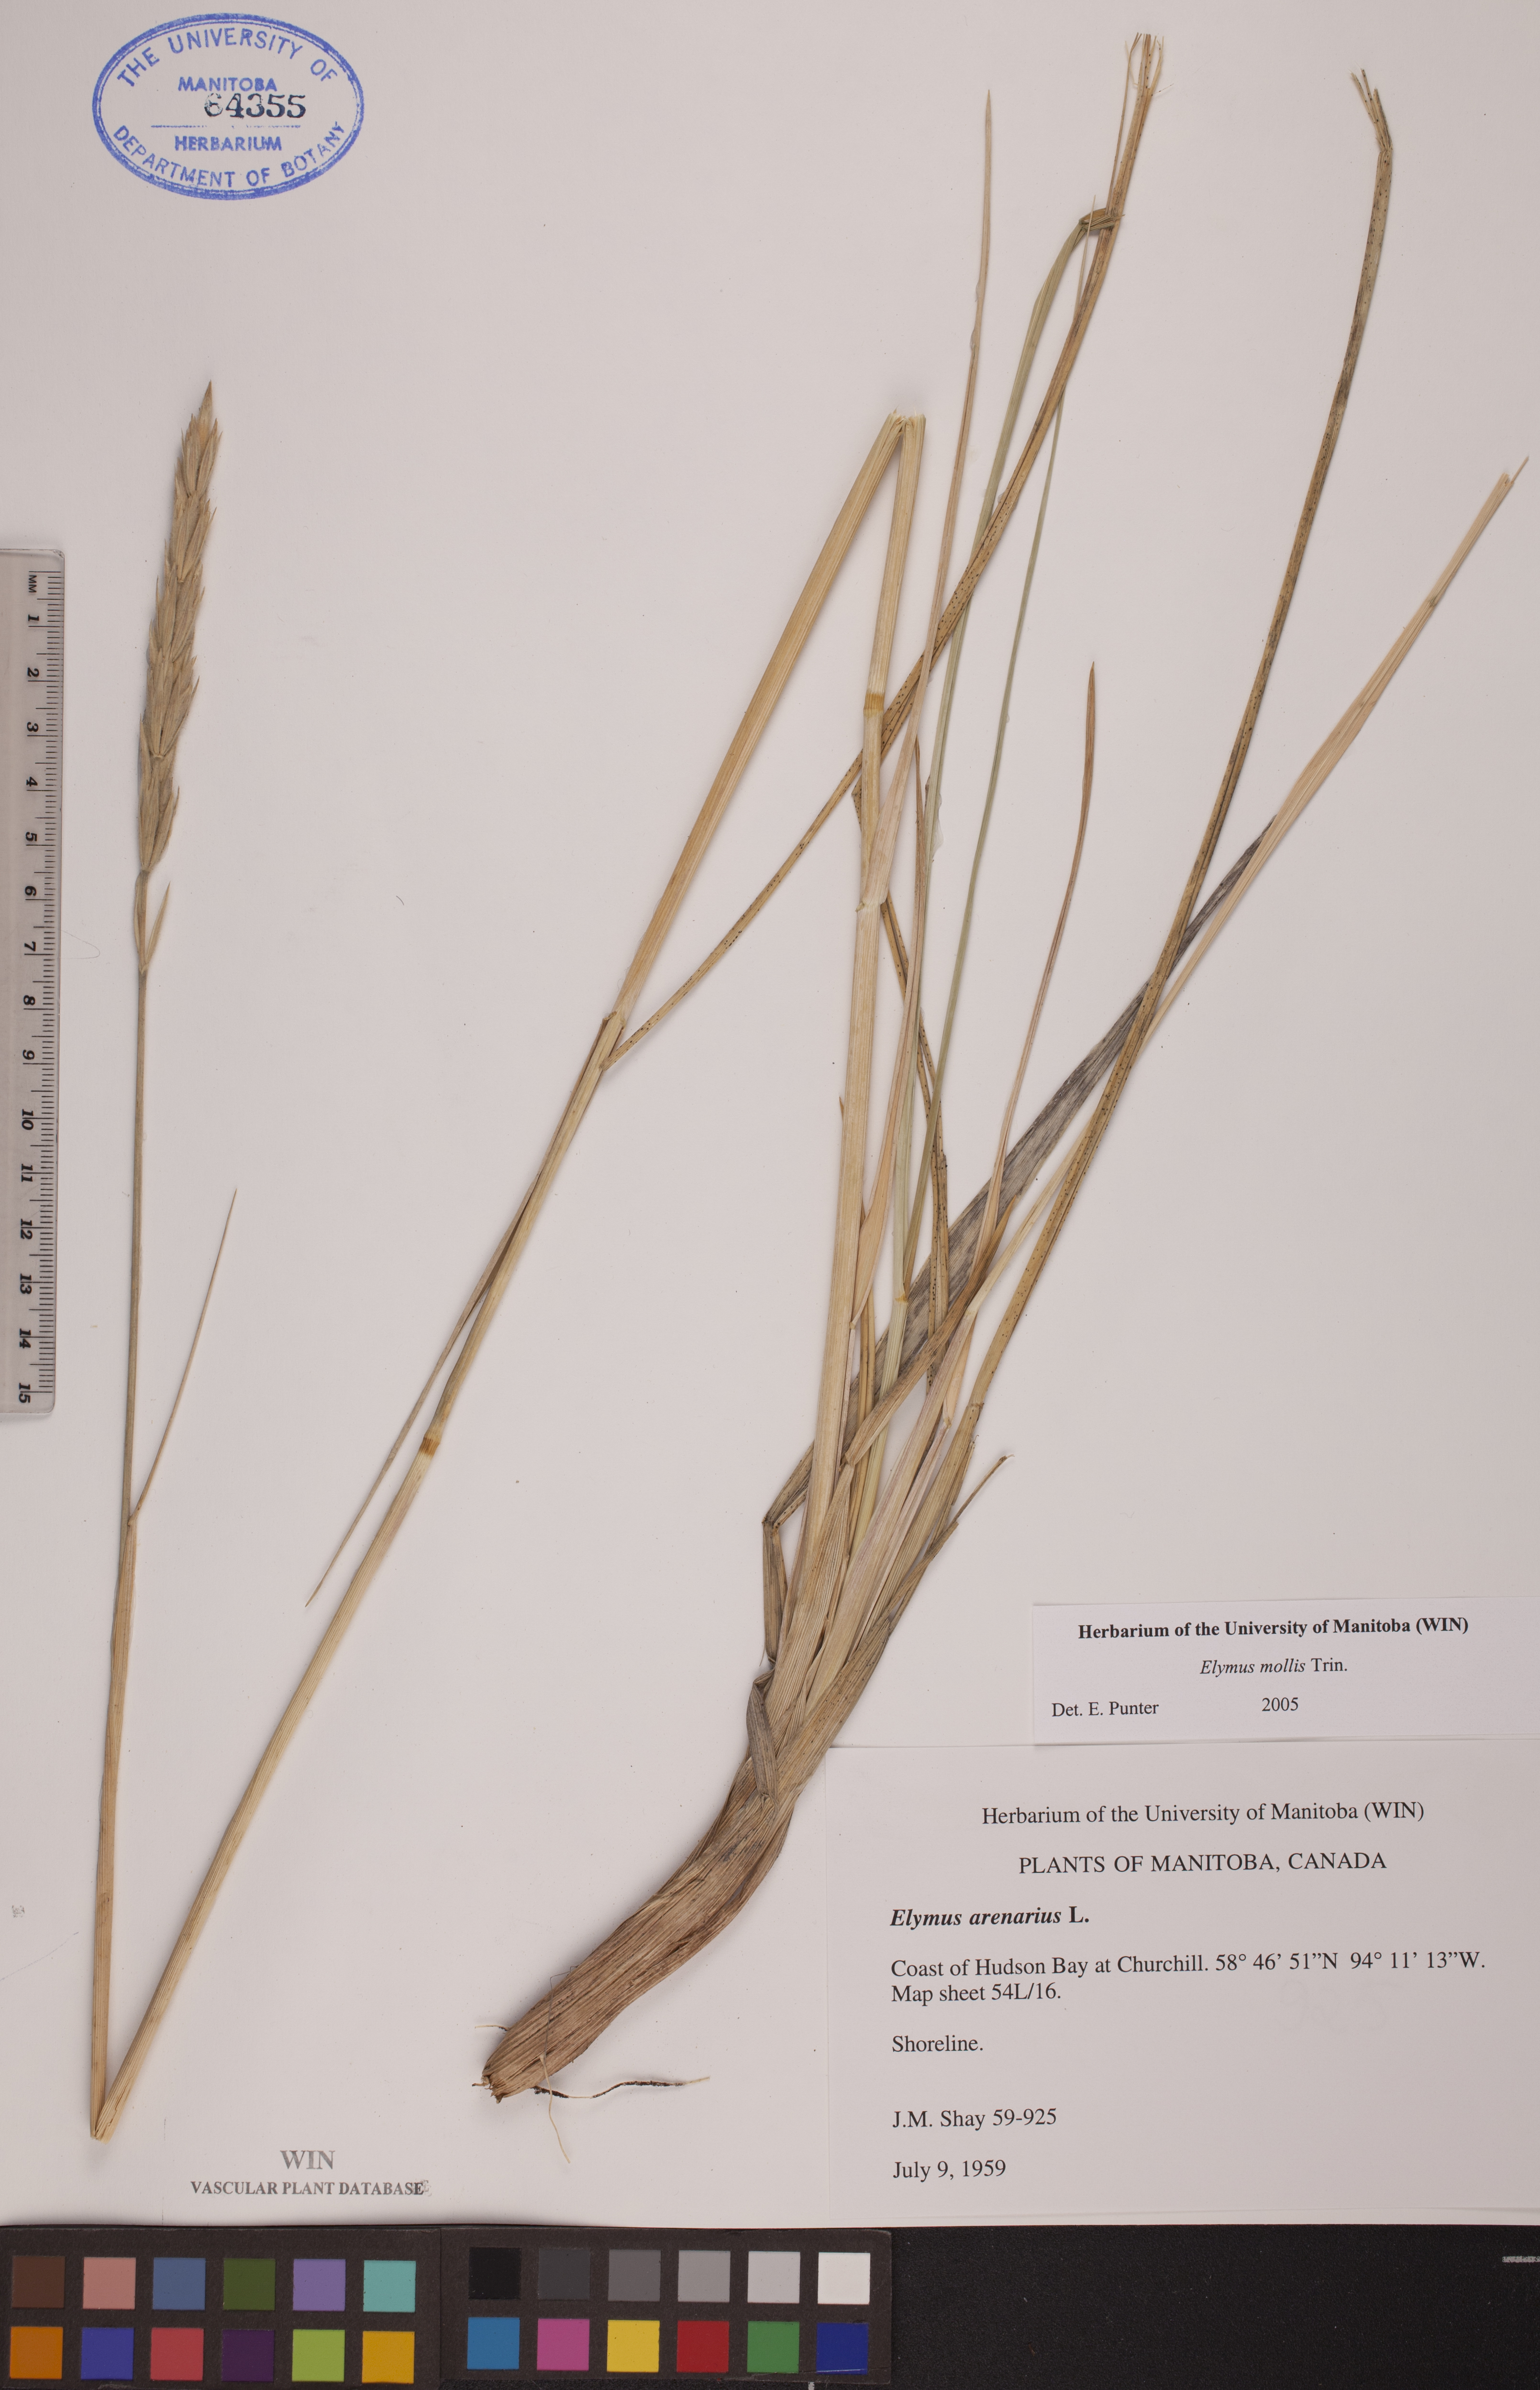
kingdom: Plantae
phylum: Tracheophyta
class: Liliopsida
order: Poales
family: Poaceae
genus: Leymus
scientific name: Leymus mollis
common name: American dune grass
